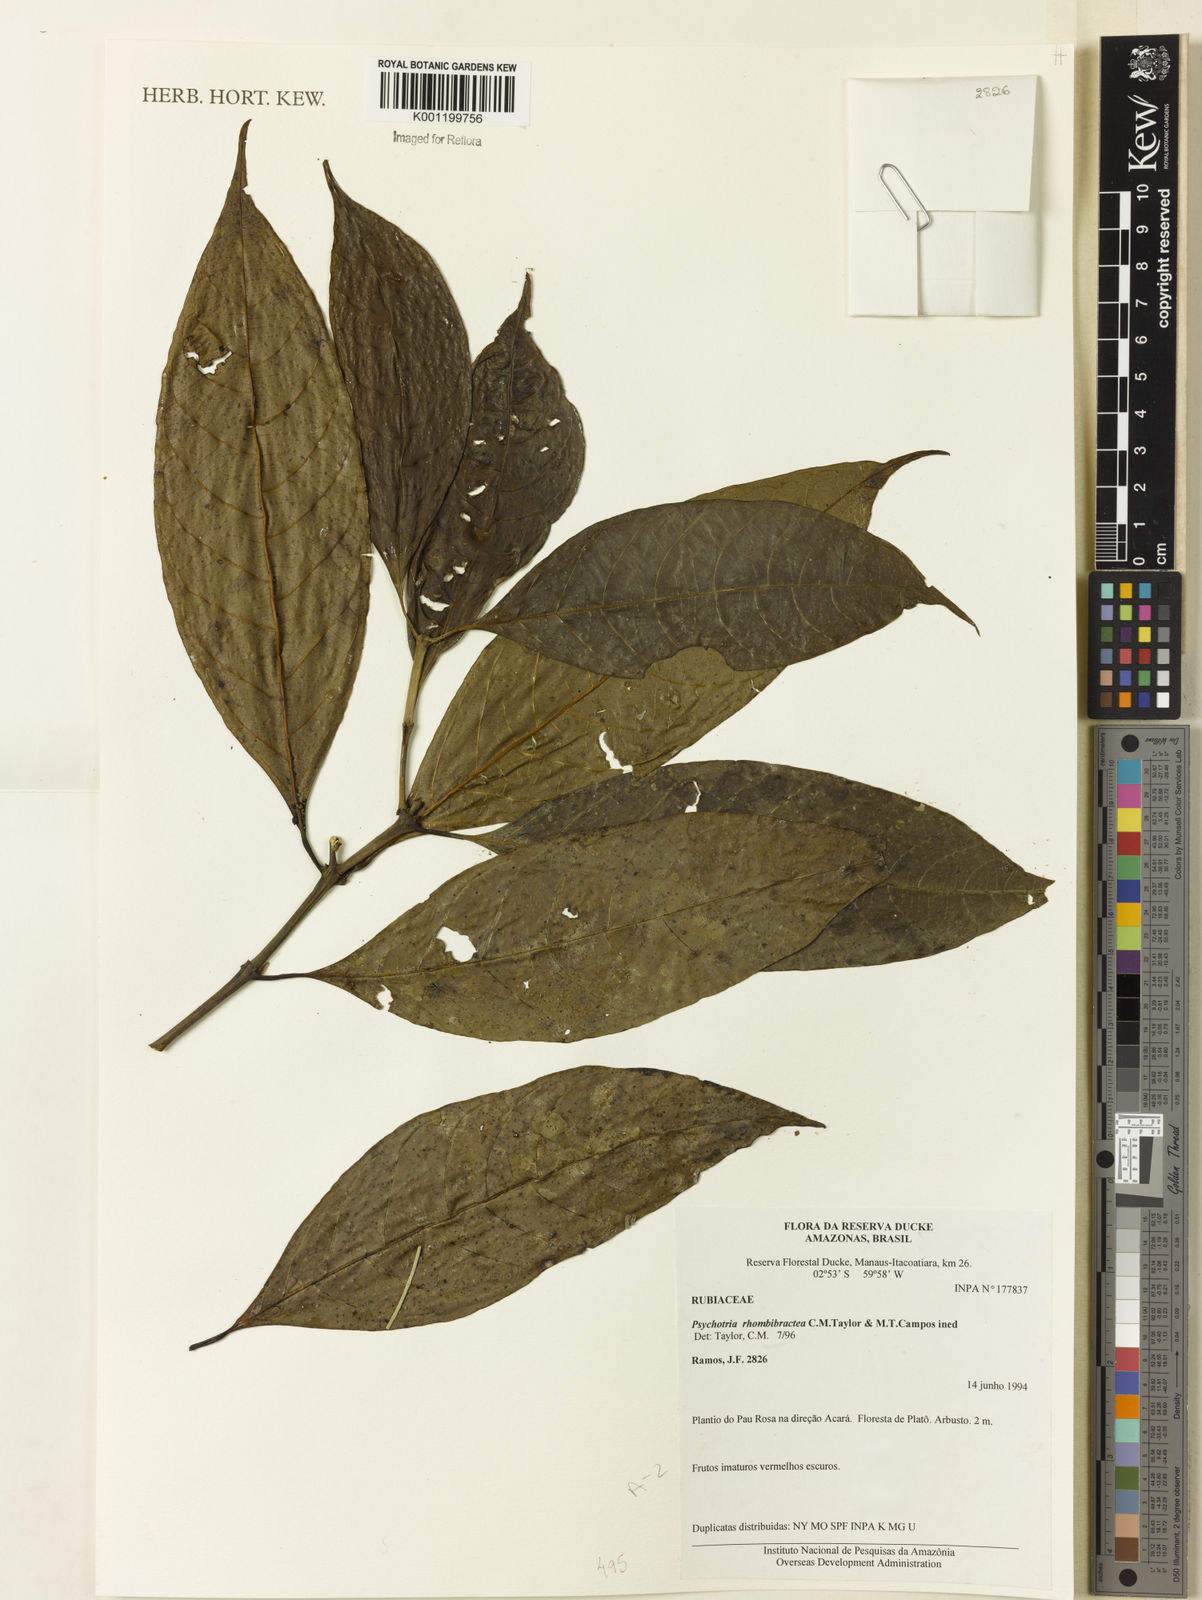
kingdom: Plantae
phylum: Tracheophyta
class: Magnoliopsida
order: Gentianales
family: Rubiaceae
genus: Psychotria
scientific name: Psychotria
